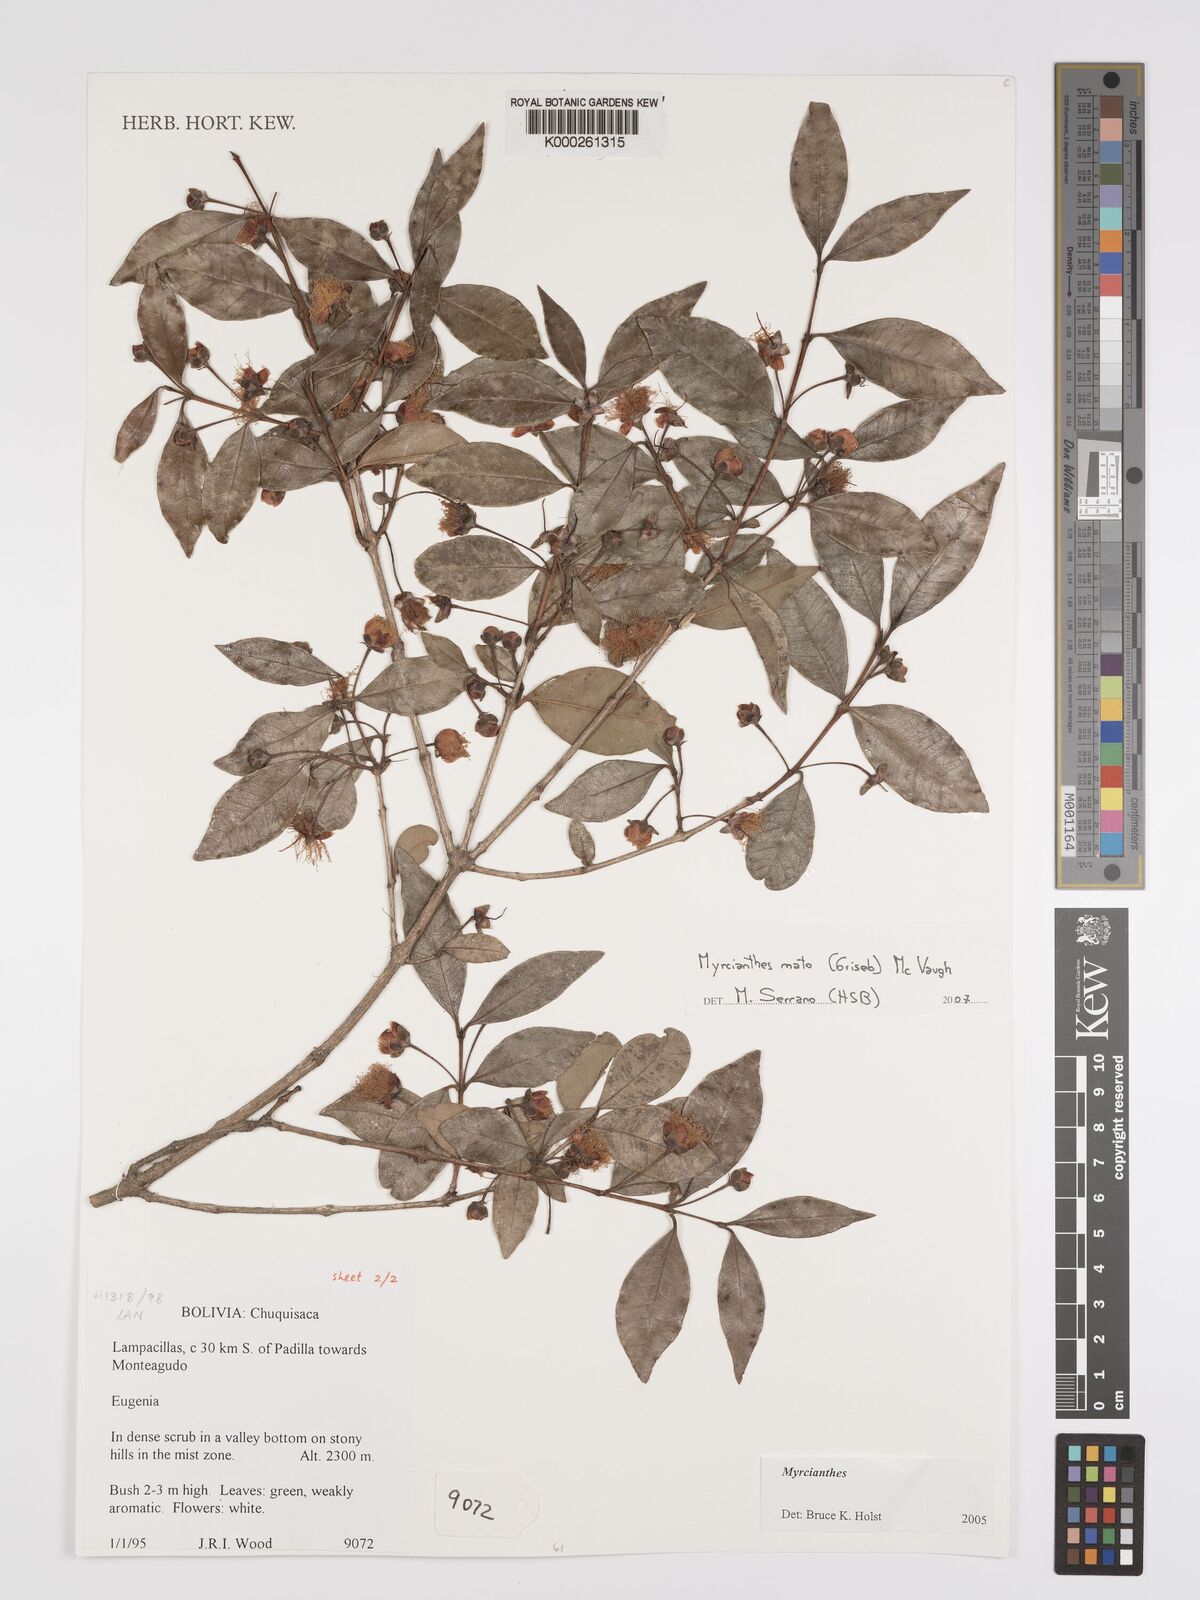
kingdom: Plantae
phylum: Tracheophyta
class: Magnoliopsida
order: Myrtales
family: Myrtaceae
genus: Myrcianthes
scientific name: Myrcianthes mato
